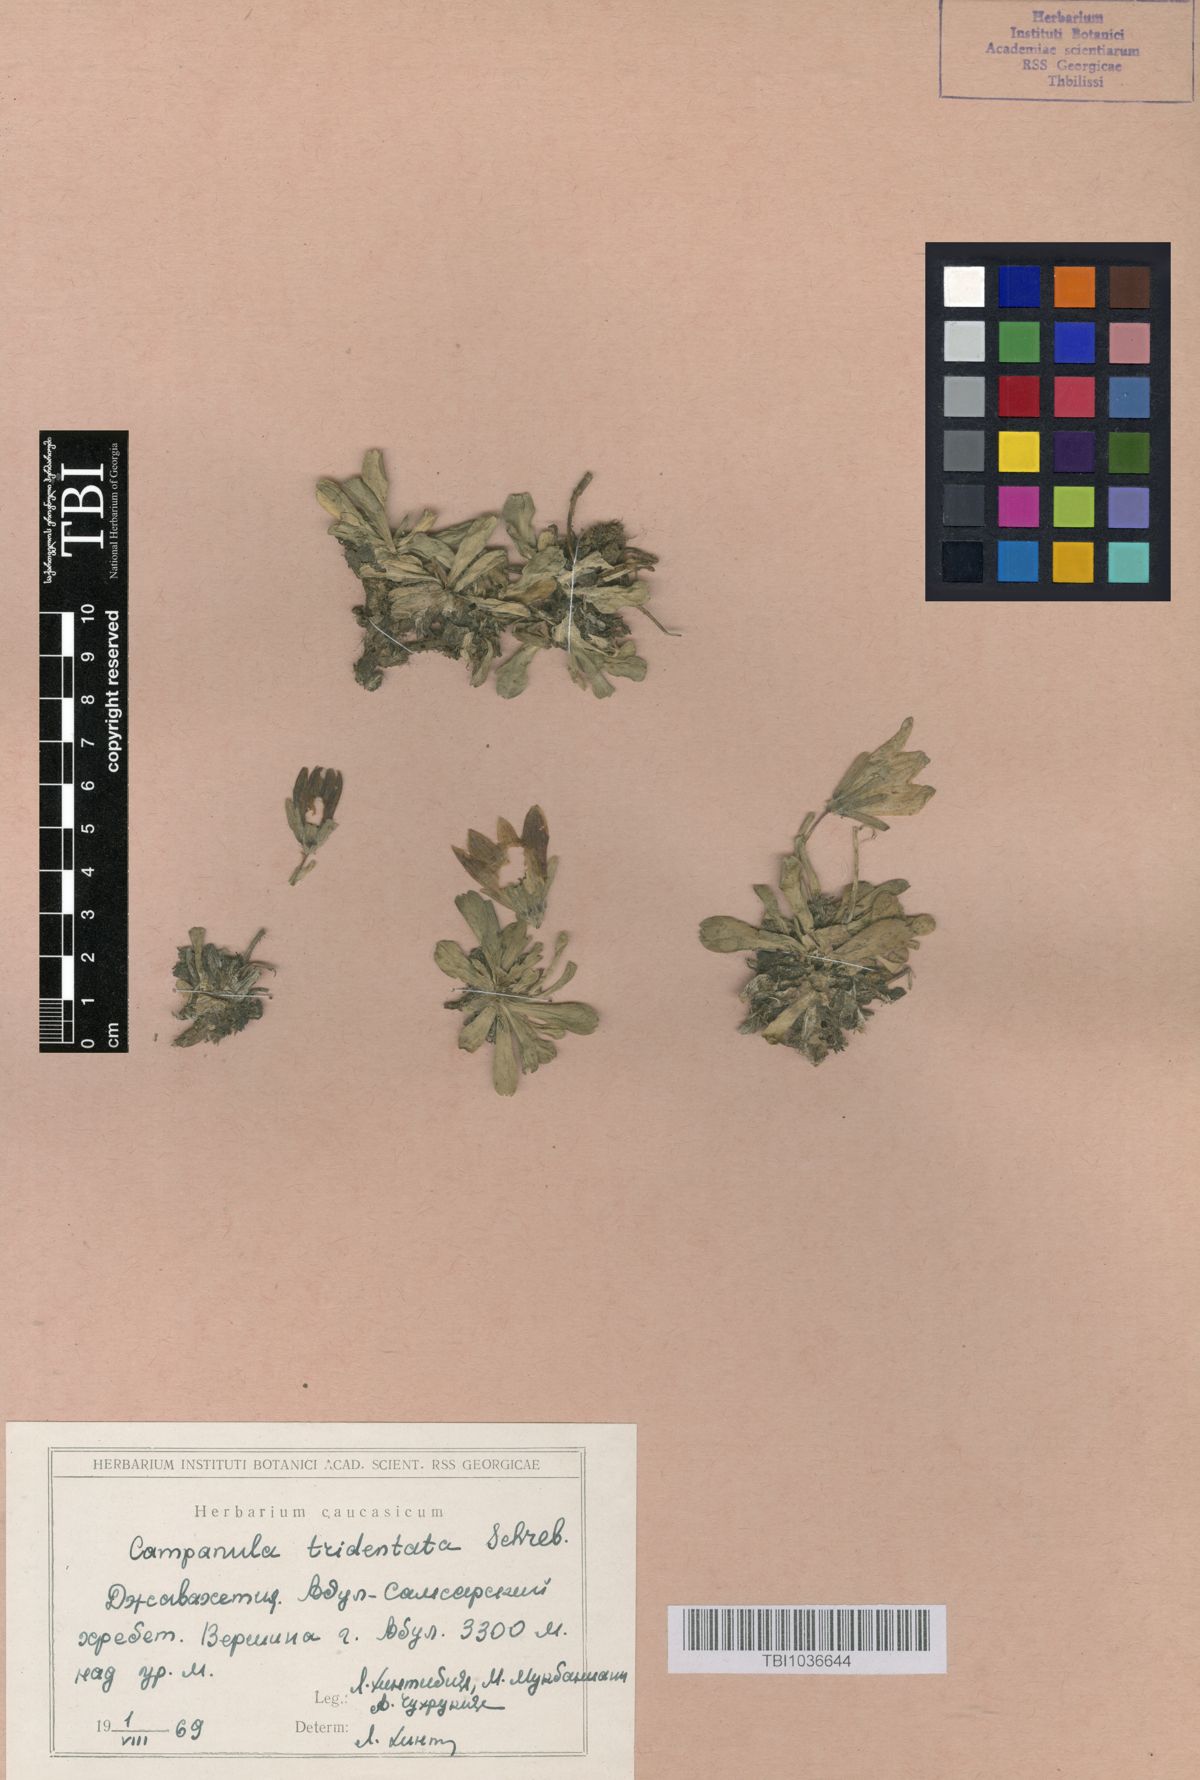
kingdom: Plantae
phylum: Tracheophyta
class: Magnoliopsida
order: Asterales
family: Campanulaceae
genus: Campanula
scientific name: Campanula tridentata
